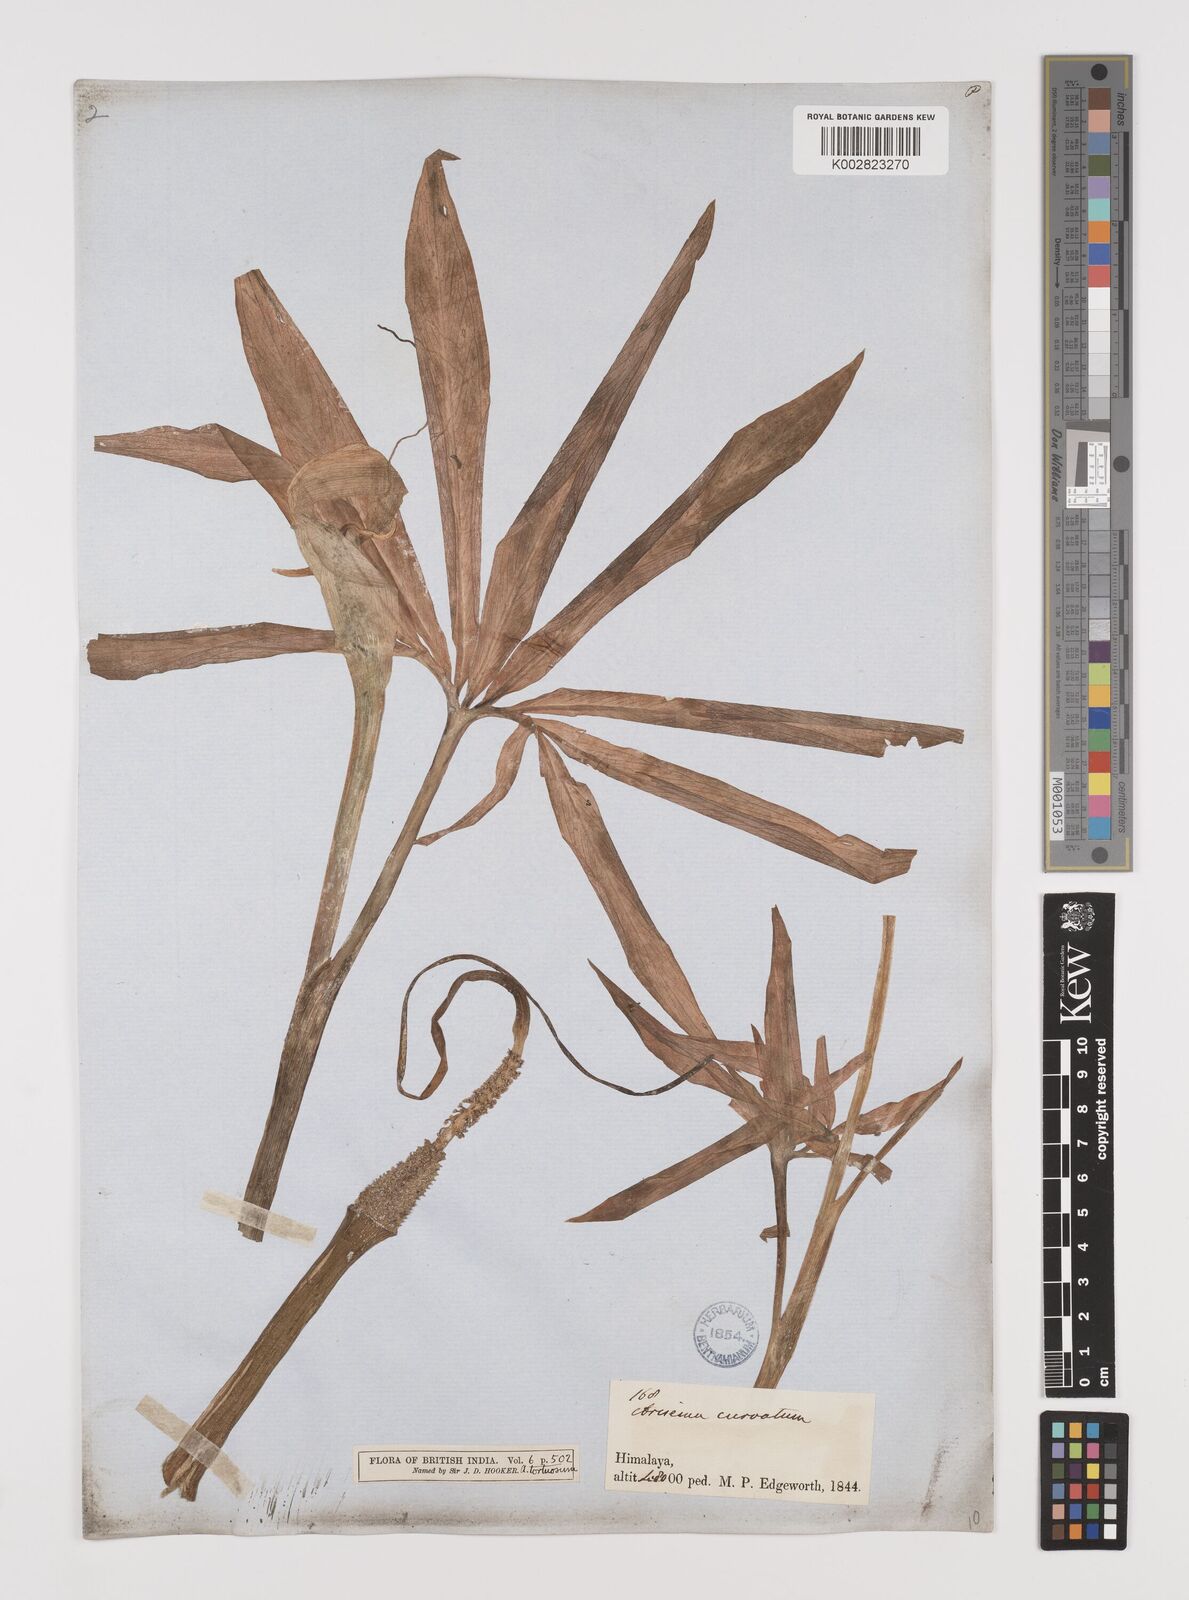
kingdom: Plantae
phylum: Tracheophyta
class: Liliopsida
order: Alismatales
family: Araceae
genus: Arisaema
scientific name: Arisaema tortuosum
